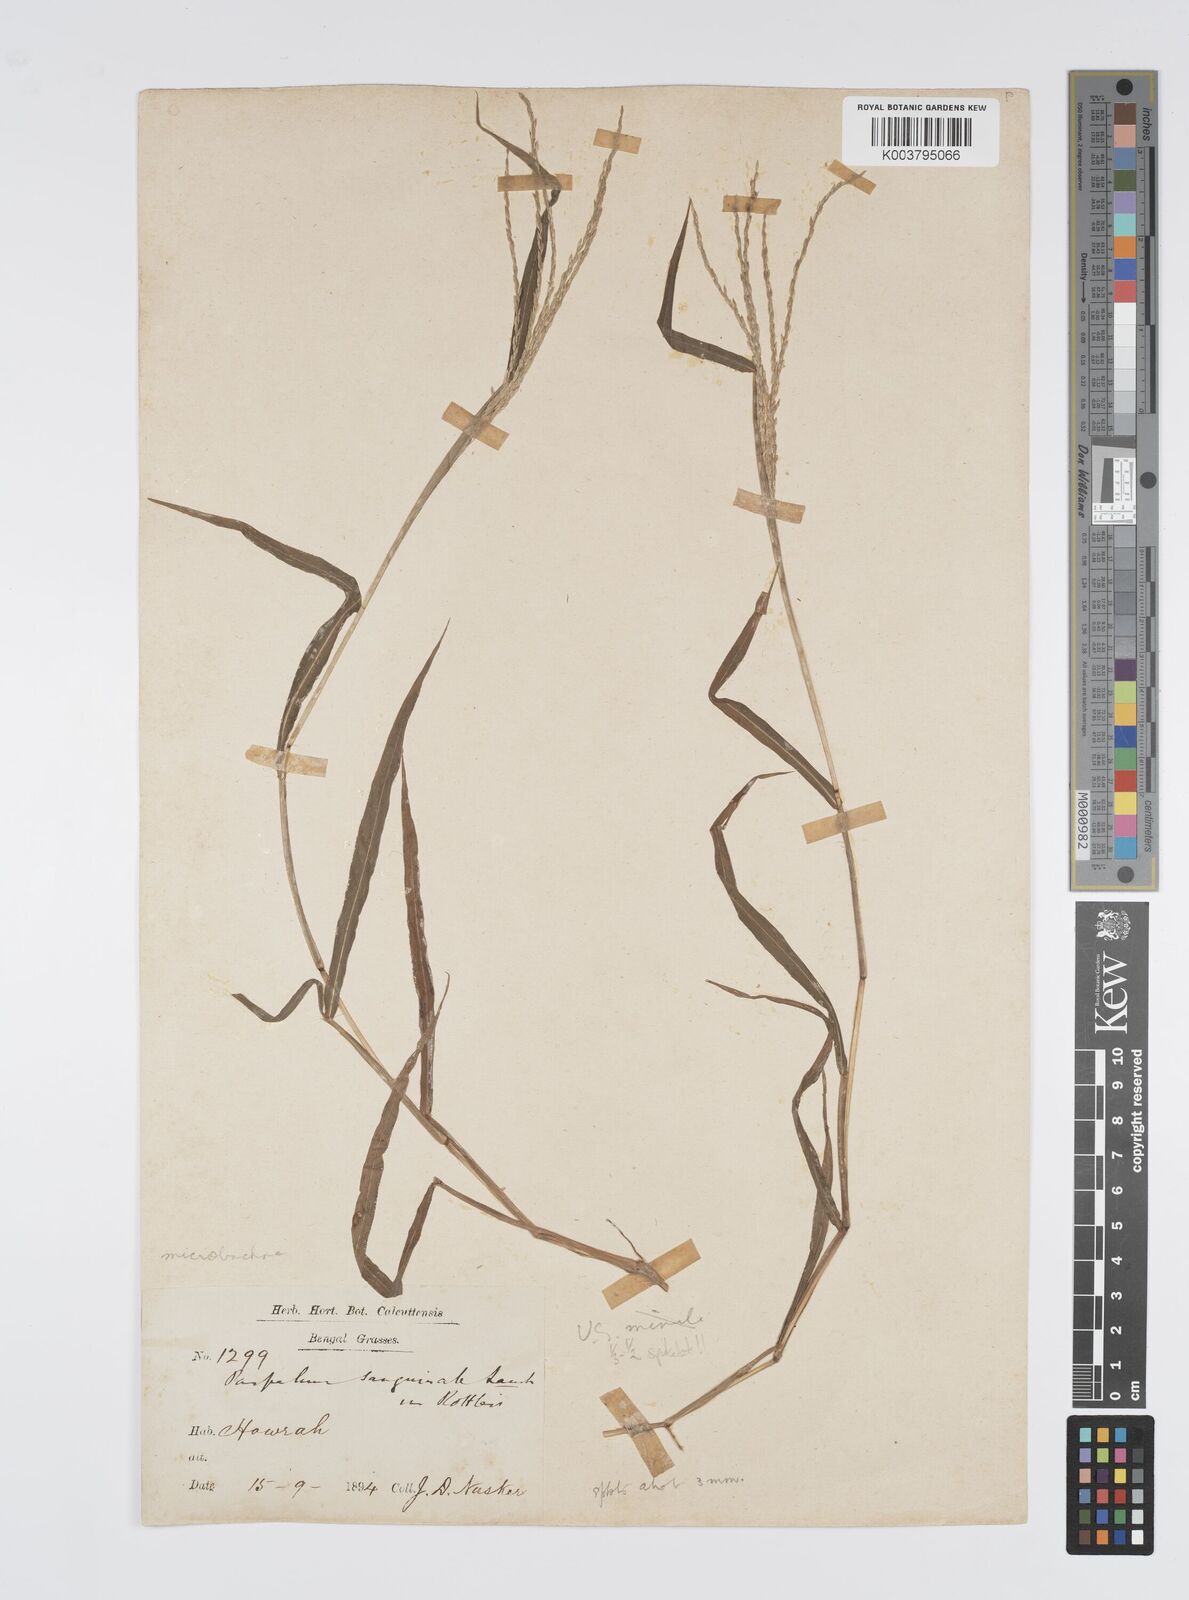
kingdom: Plantae
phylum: Tracheophyta
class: Liliopsida
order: Poales
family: Poaceae
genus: Digitaria
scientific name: Digitaria setigera
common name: East indian crabgrass
